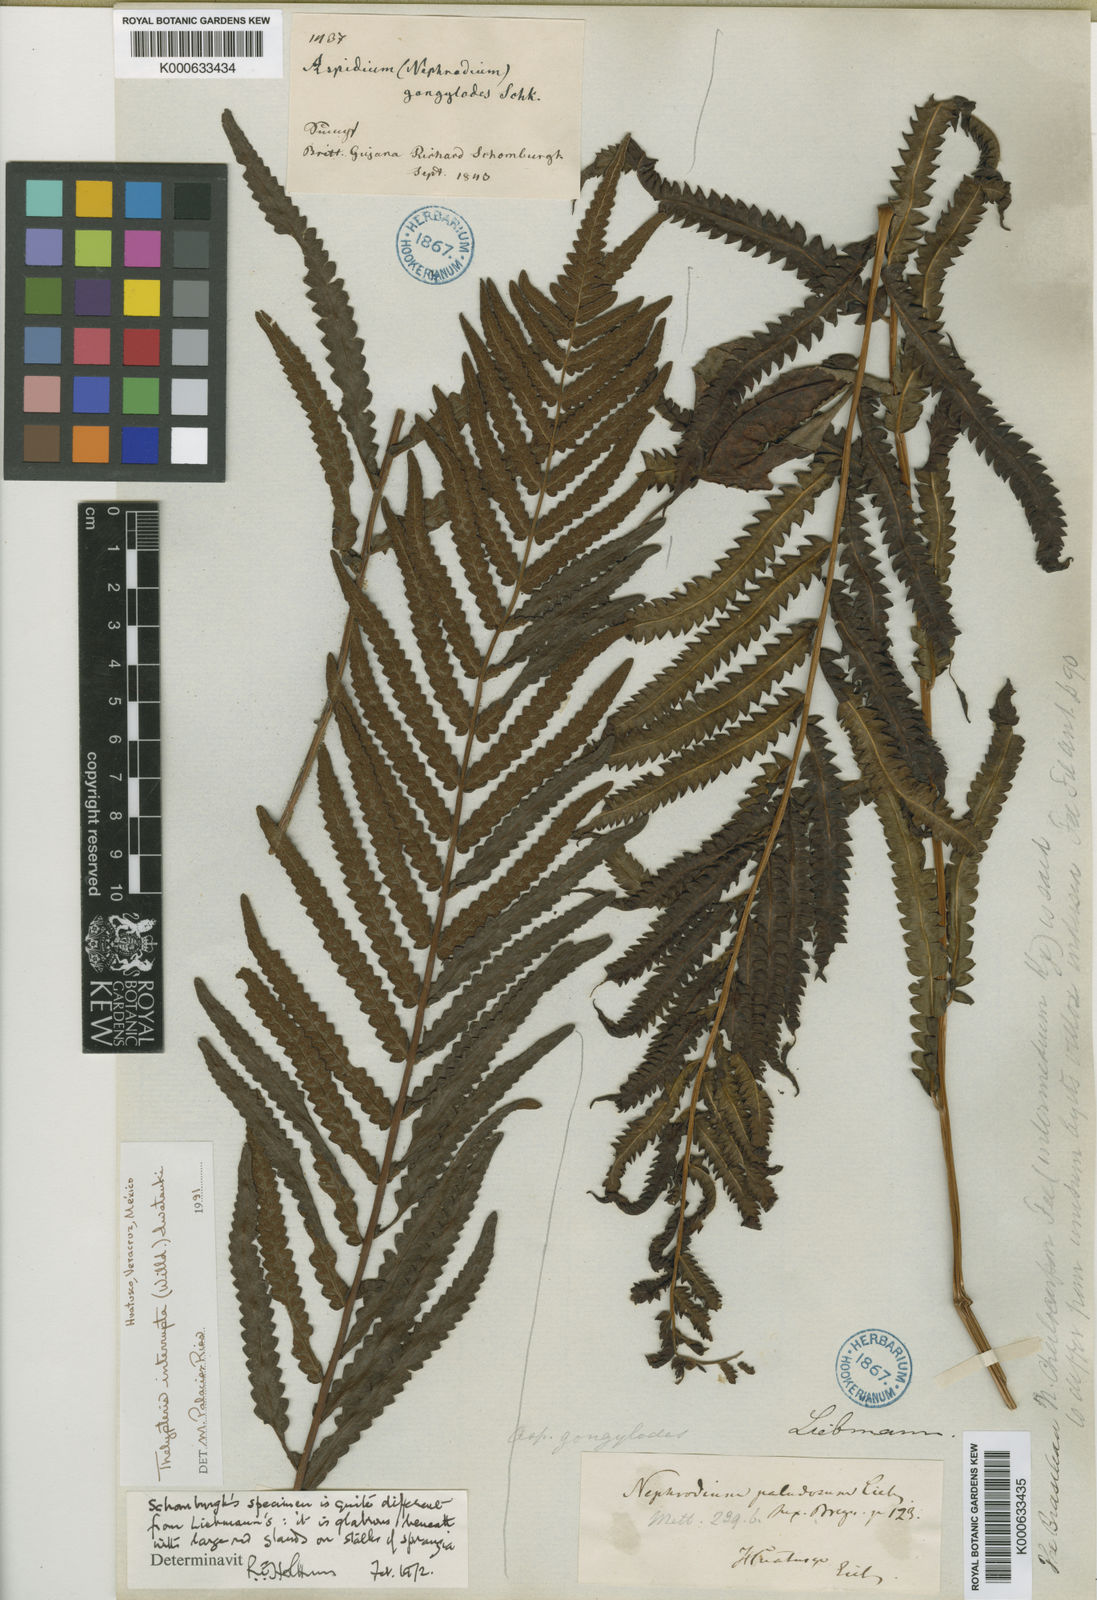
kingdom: Plantae
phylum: Tracheophyta
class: Polypodiopsida
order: Polypodiales
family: Thelypteridaceae
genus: Cyclosorus
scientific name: Cyclosorus interruptus
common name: Neke fern
